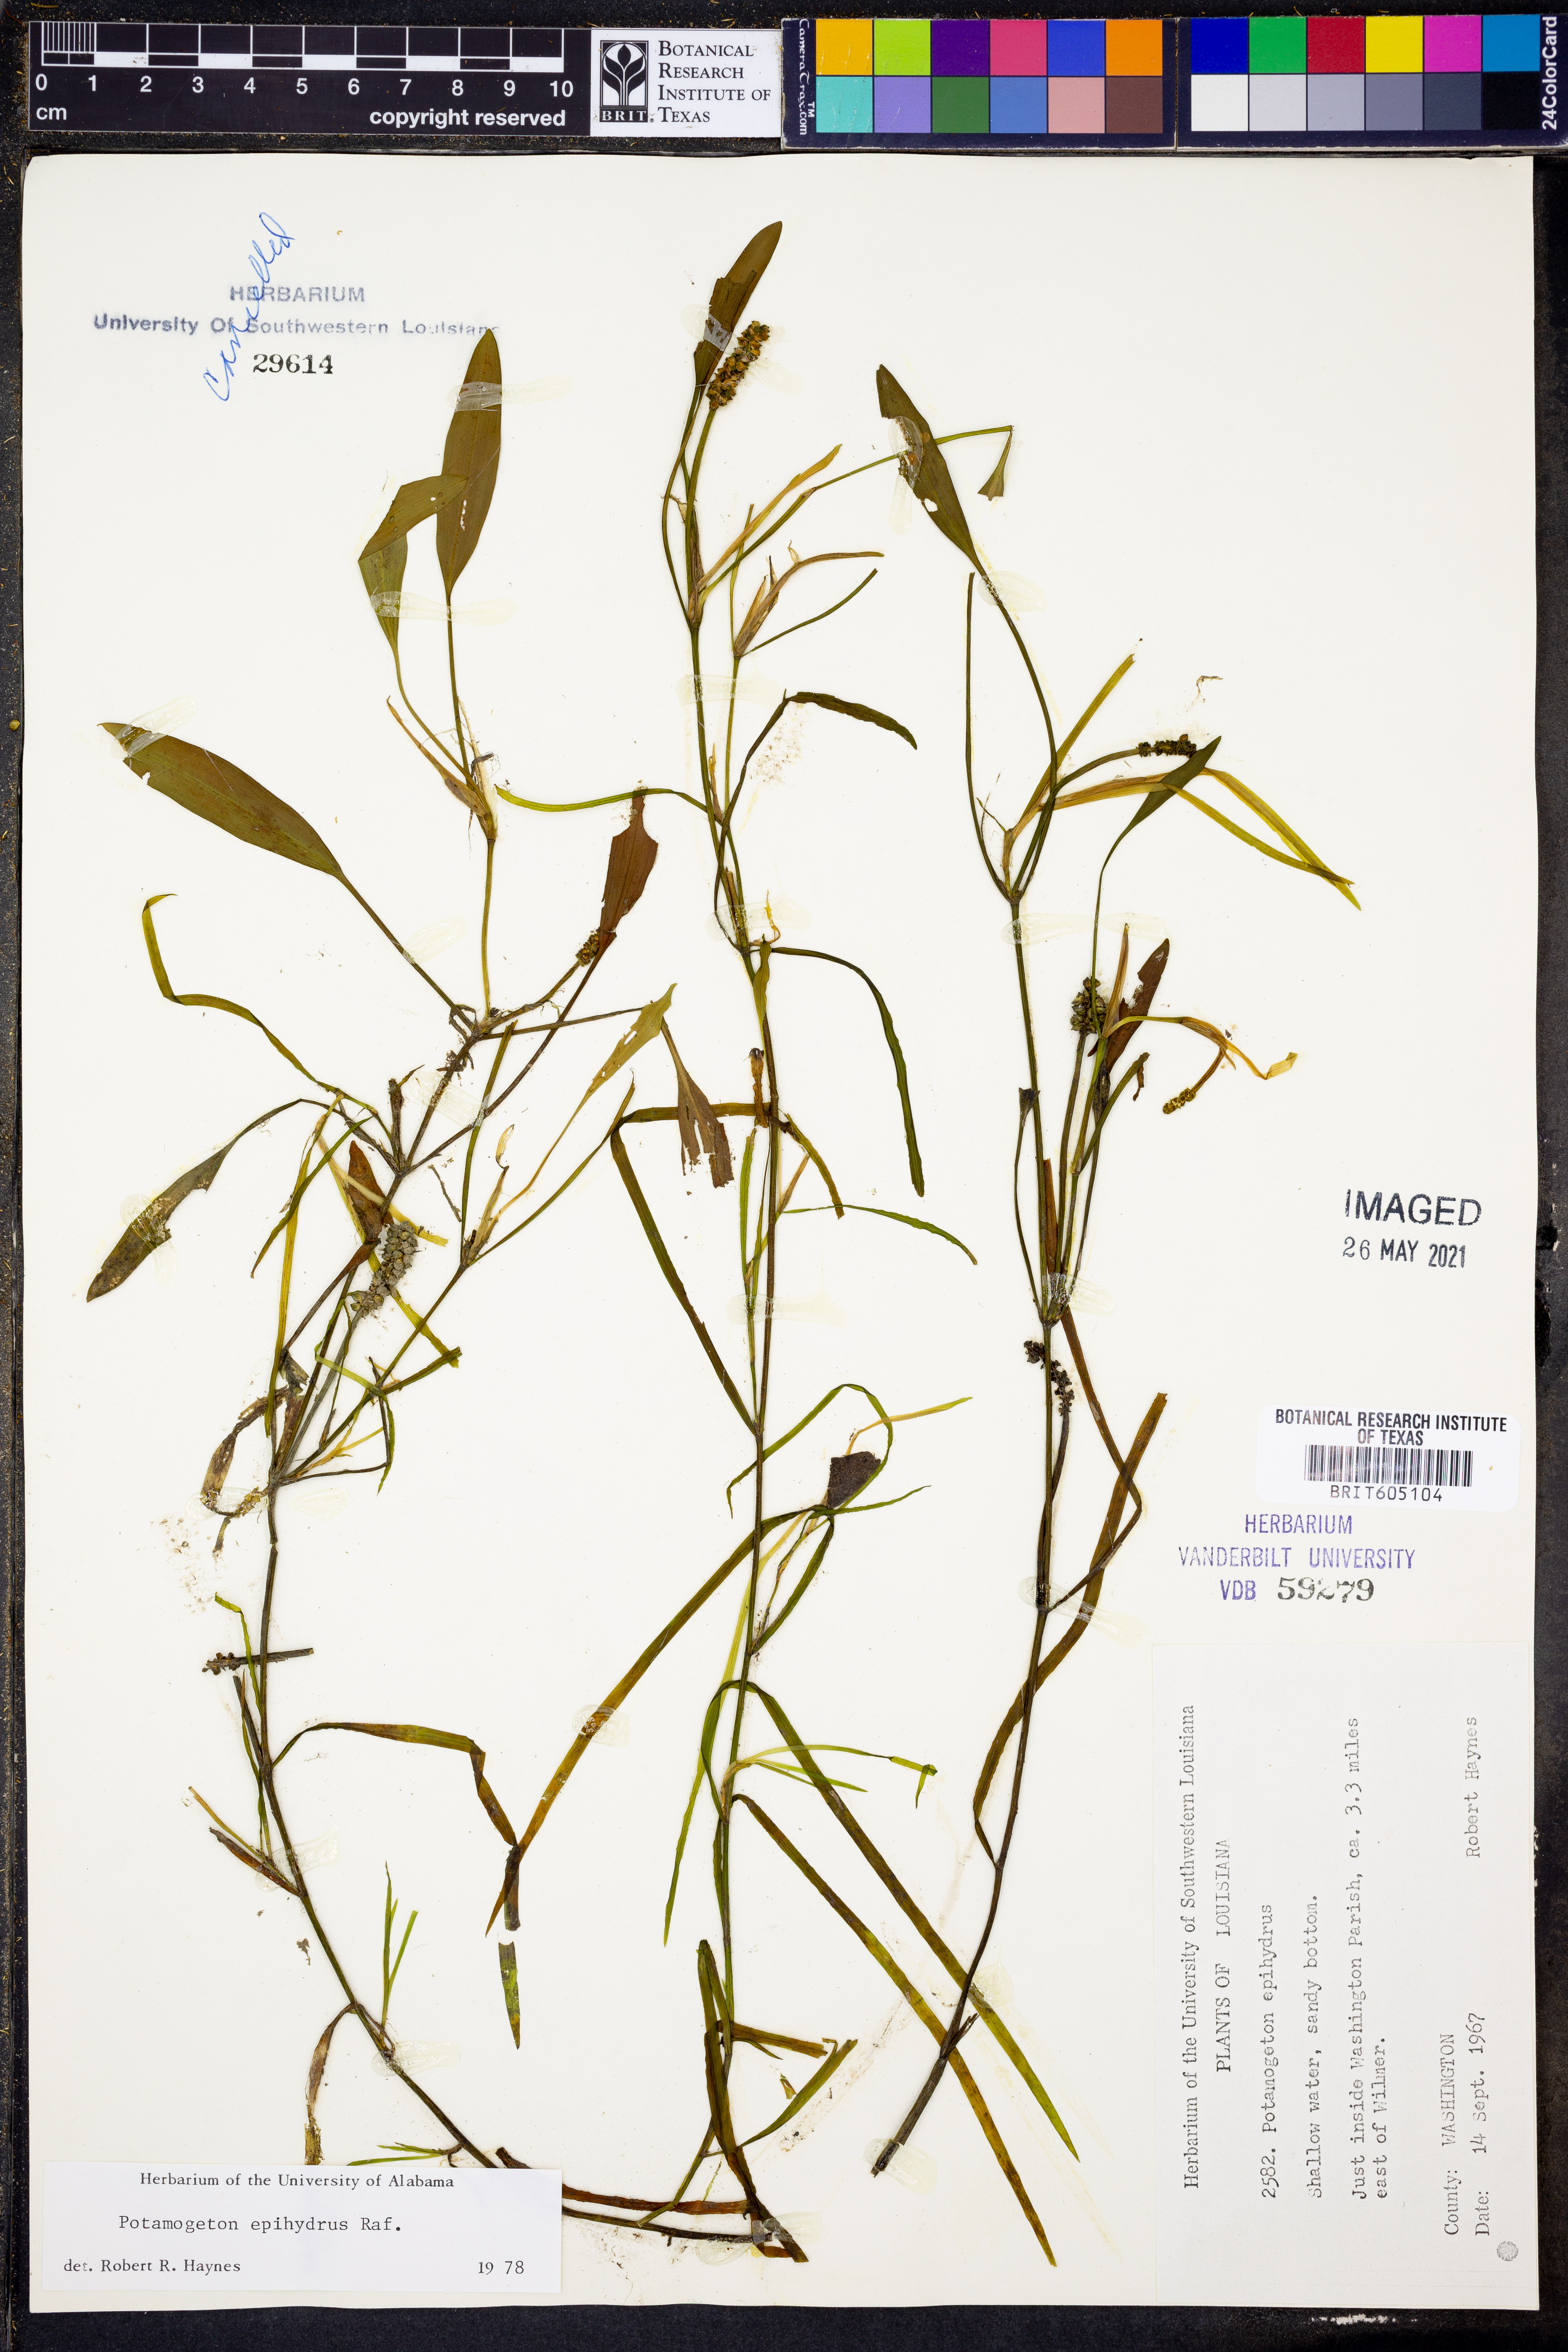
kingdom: Plantae
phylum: Tracheophyta
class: Liliopsida
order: Alismatales
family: Potamogetonaceae
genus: Potamogeton
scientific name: Potamogeton epihydrus
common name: American pondweed
